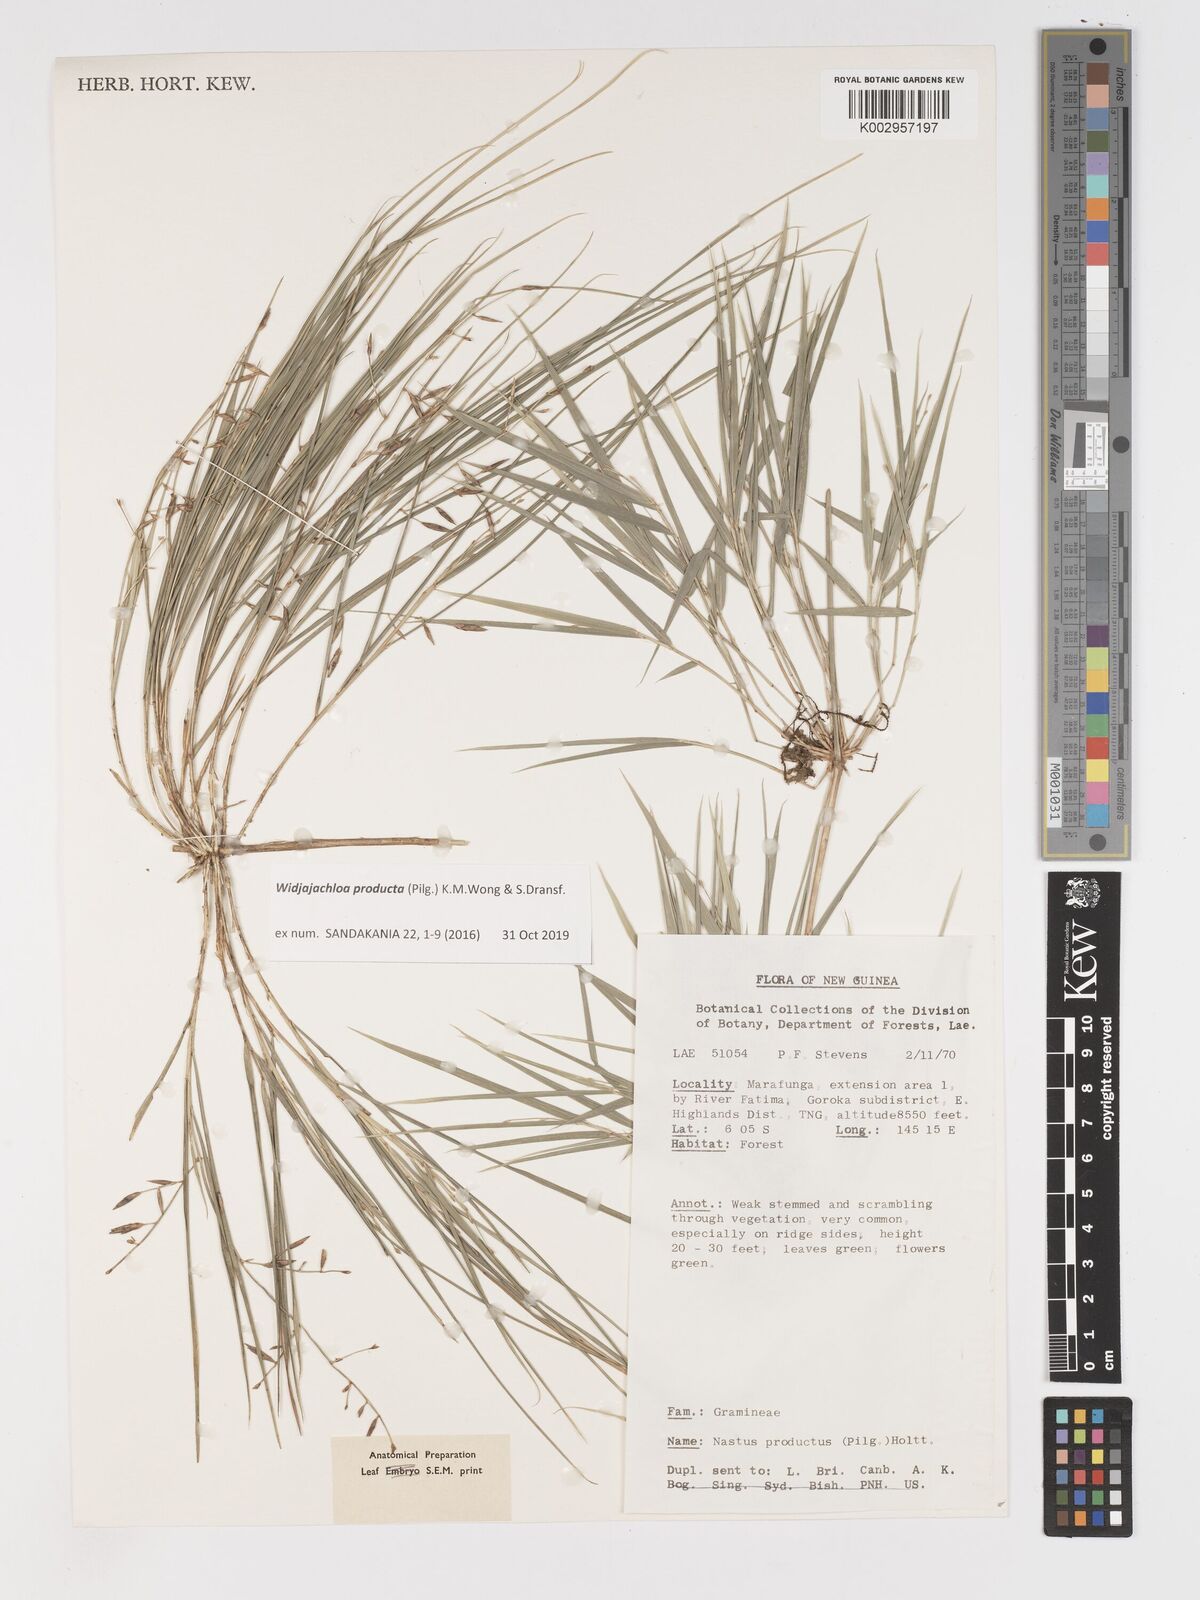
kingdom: Plantae
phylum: Tracheophyta
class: Liliopsida
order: Poales
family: Poaceae
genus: Widjajachloa
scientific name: Widjajachloa producta
